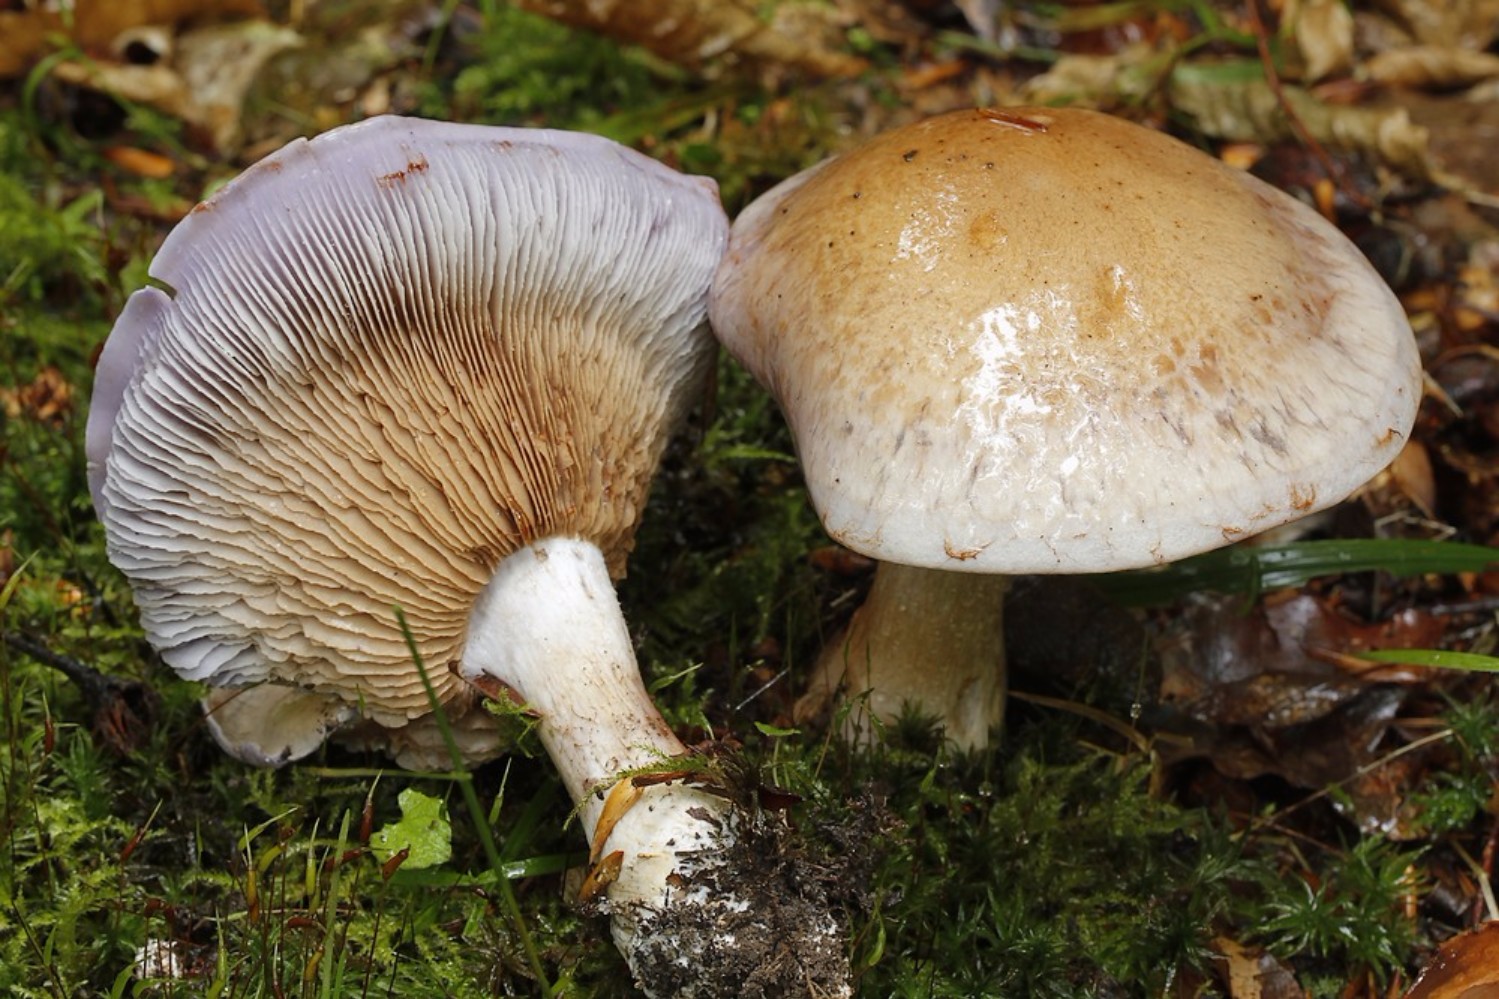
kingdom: Fungi
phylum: Basidiomycota
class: Agaricomycetes
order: Agaricales
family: Cortinariaceae
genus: Cortinarius
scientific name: Cortinarius largus
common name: violetrandet slørhat
